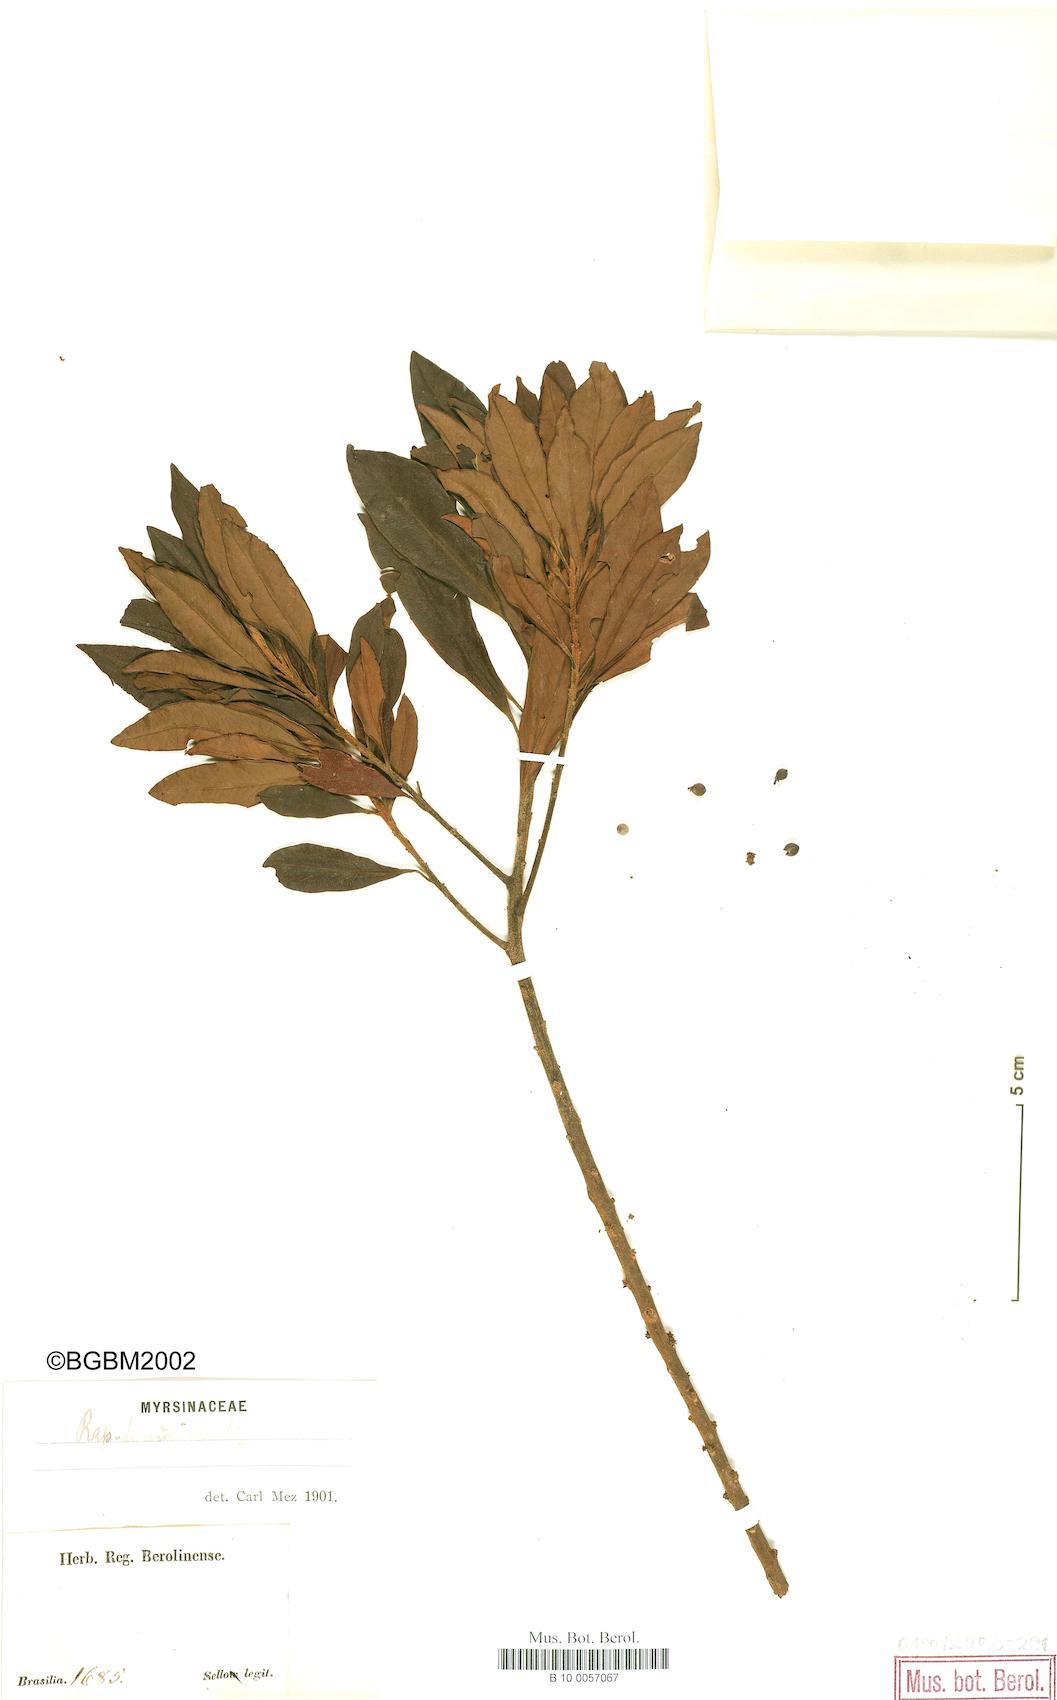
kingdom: Plantae
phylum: Tracheophyta
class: Magnoliopsida
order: Ericales
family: Primulaceae
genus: Myrsine
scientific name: Myrsine coriacea
